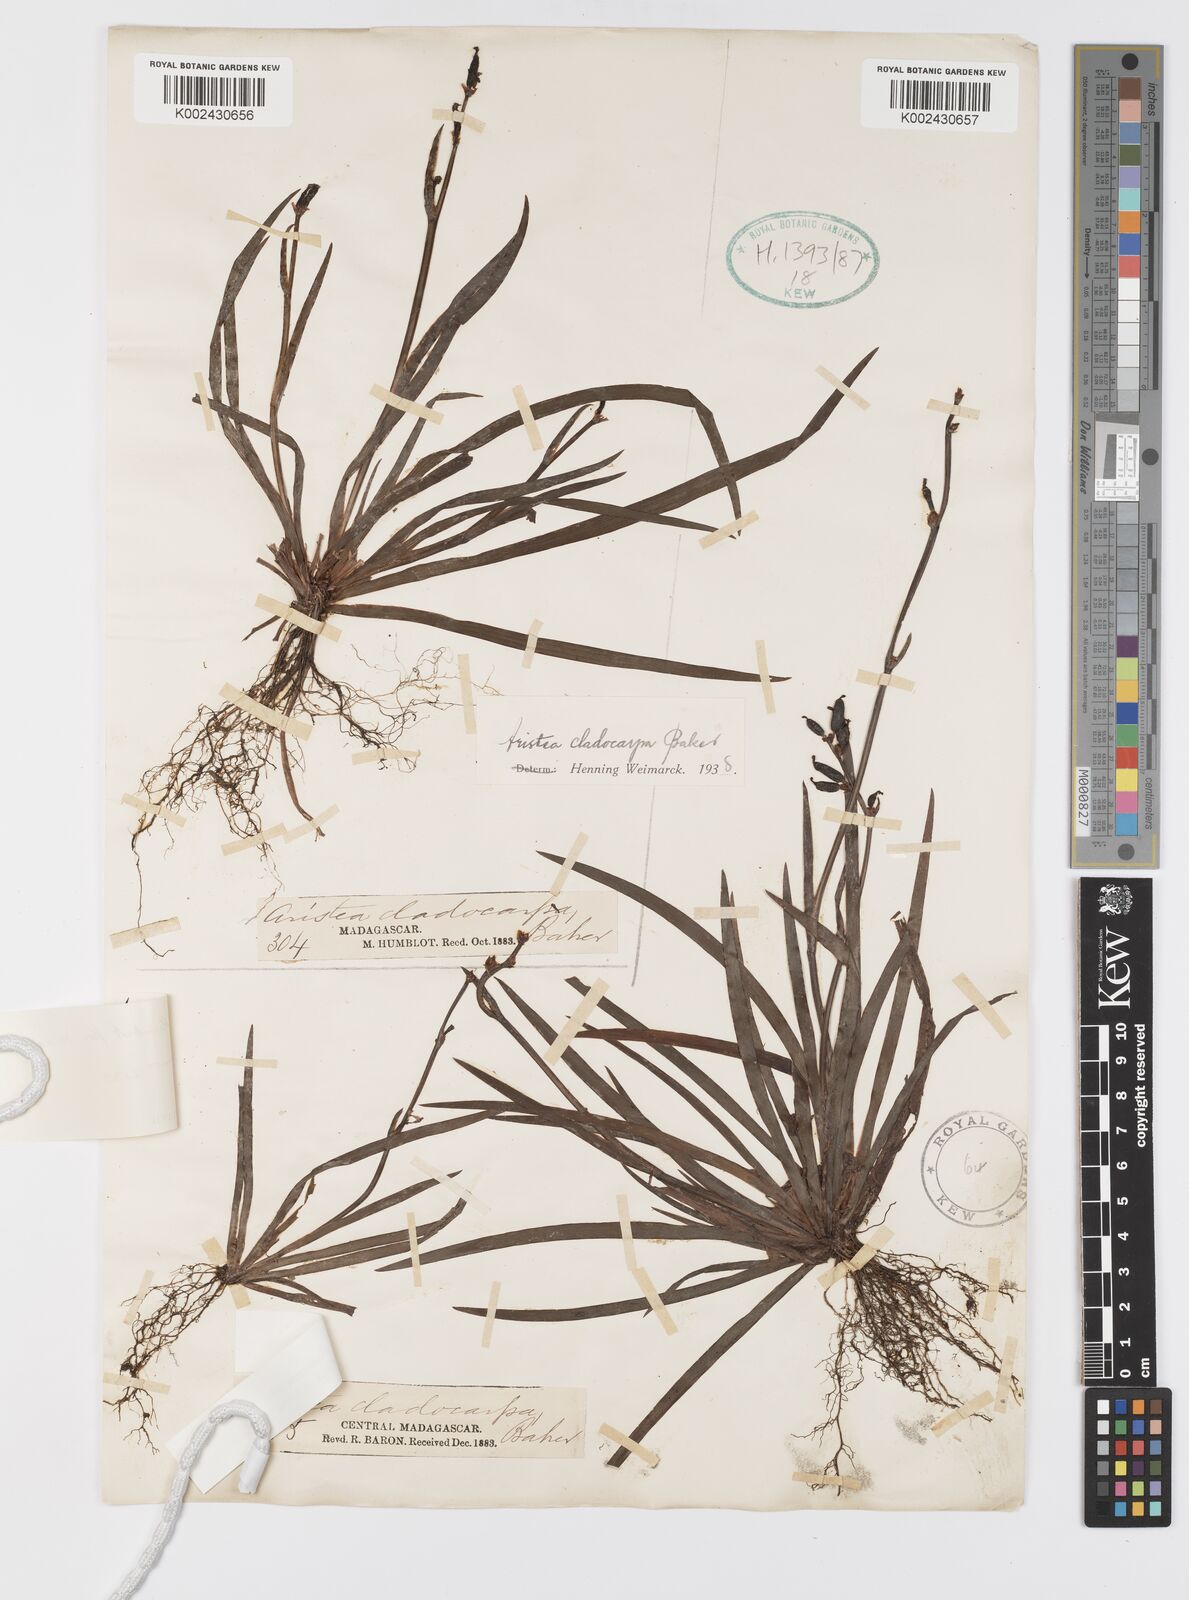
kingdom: Plantae
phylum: Tracheophyta
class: Liliopsida
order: Asparagales
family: Iridaceae
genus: Aristea
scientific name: Aristea cladocarpa
